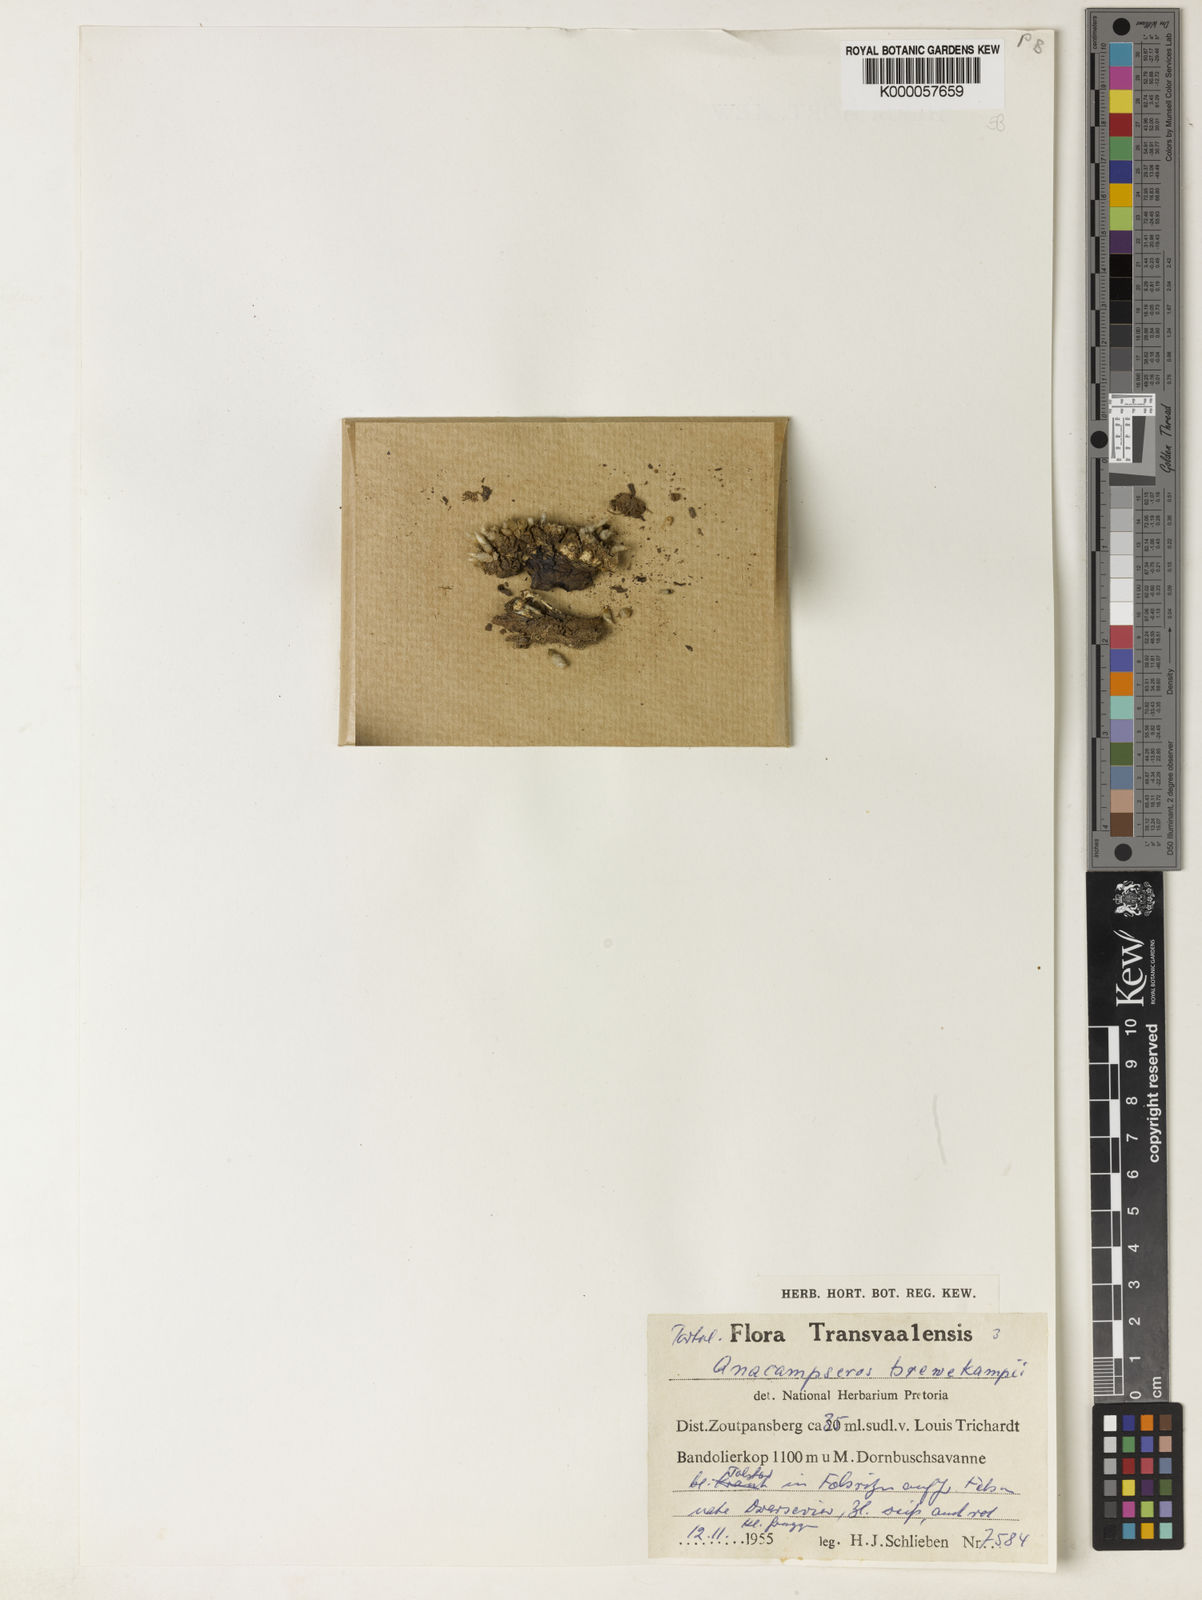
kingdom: Plantae
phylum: Tracheophyta
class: Magnoliopsida
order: Caryophyllales
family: Anacampserotaceae
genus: Avonia
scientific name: Avonia rhodesica
